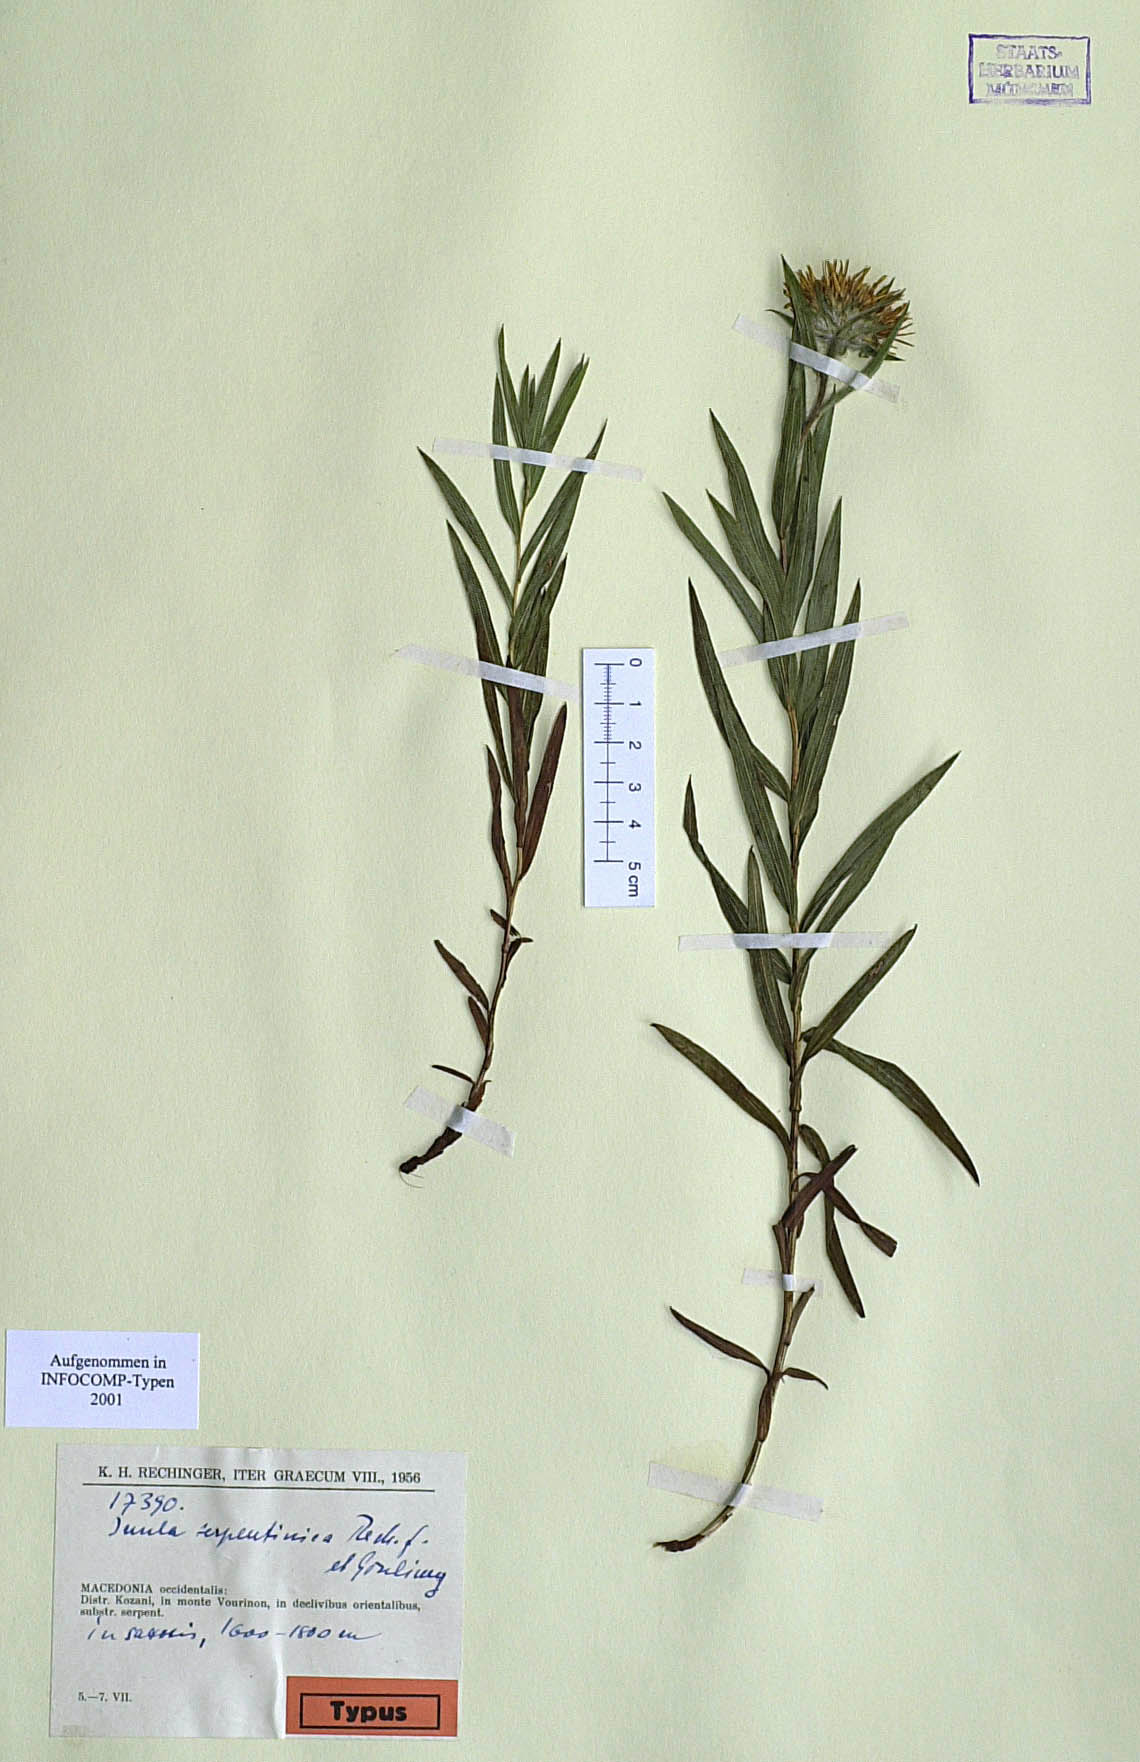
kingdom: Plantae
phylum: Tracheophyta
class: Magnoliopsida
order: Asterales
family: Asteraceae
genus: Pentanema
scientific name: Pentanema ensifolium
